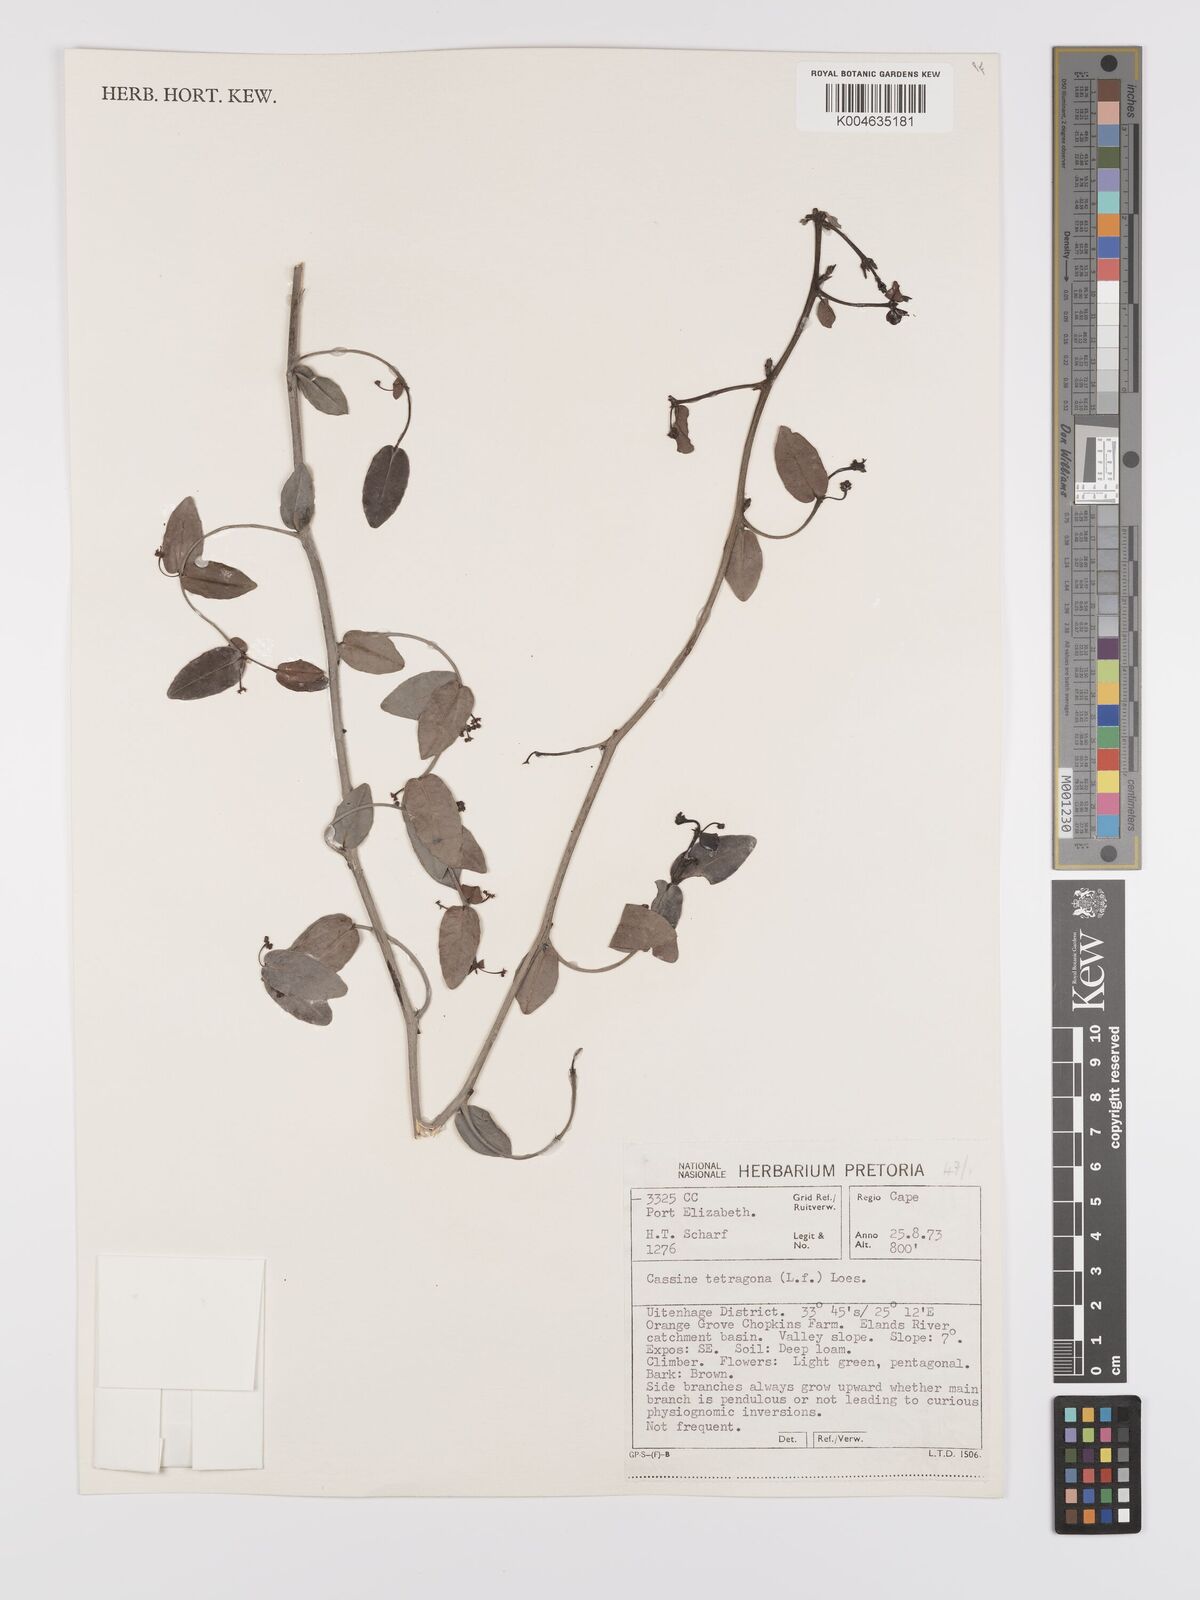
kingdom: Plantae
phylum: Tracheophyta
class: Magnoliopsida
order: Celastrales
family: Celastraceae
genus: Lauridia
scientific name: Lauridia tetragona
